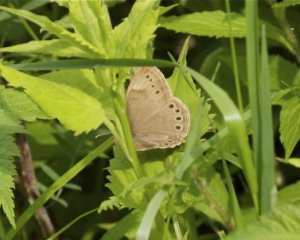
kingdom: Animalia
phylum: Arthropoda
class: Insecta
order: Lepidoptera
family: Nymphalidae
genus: Lethe
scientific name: Lethe eurydice
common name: Eyed Brown
